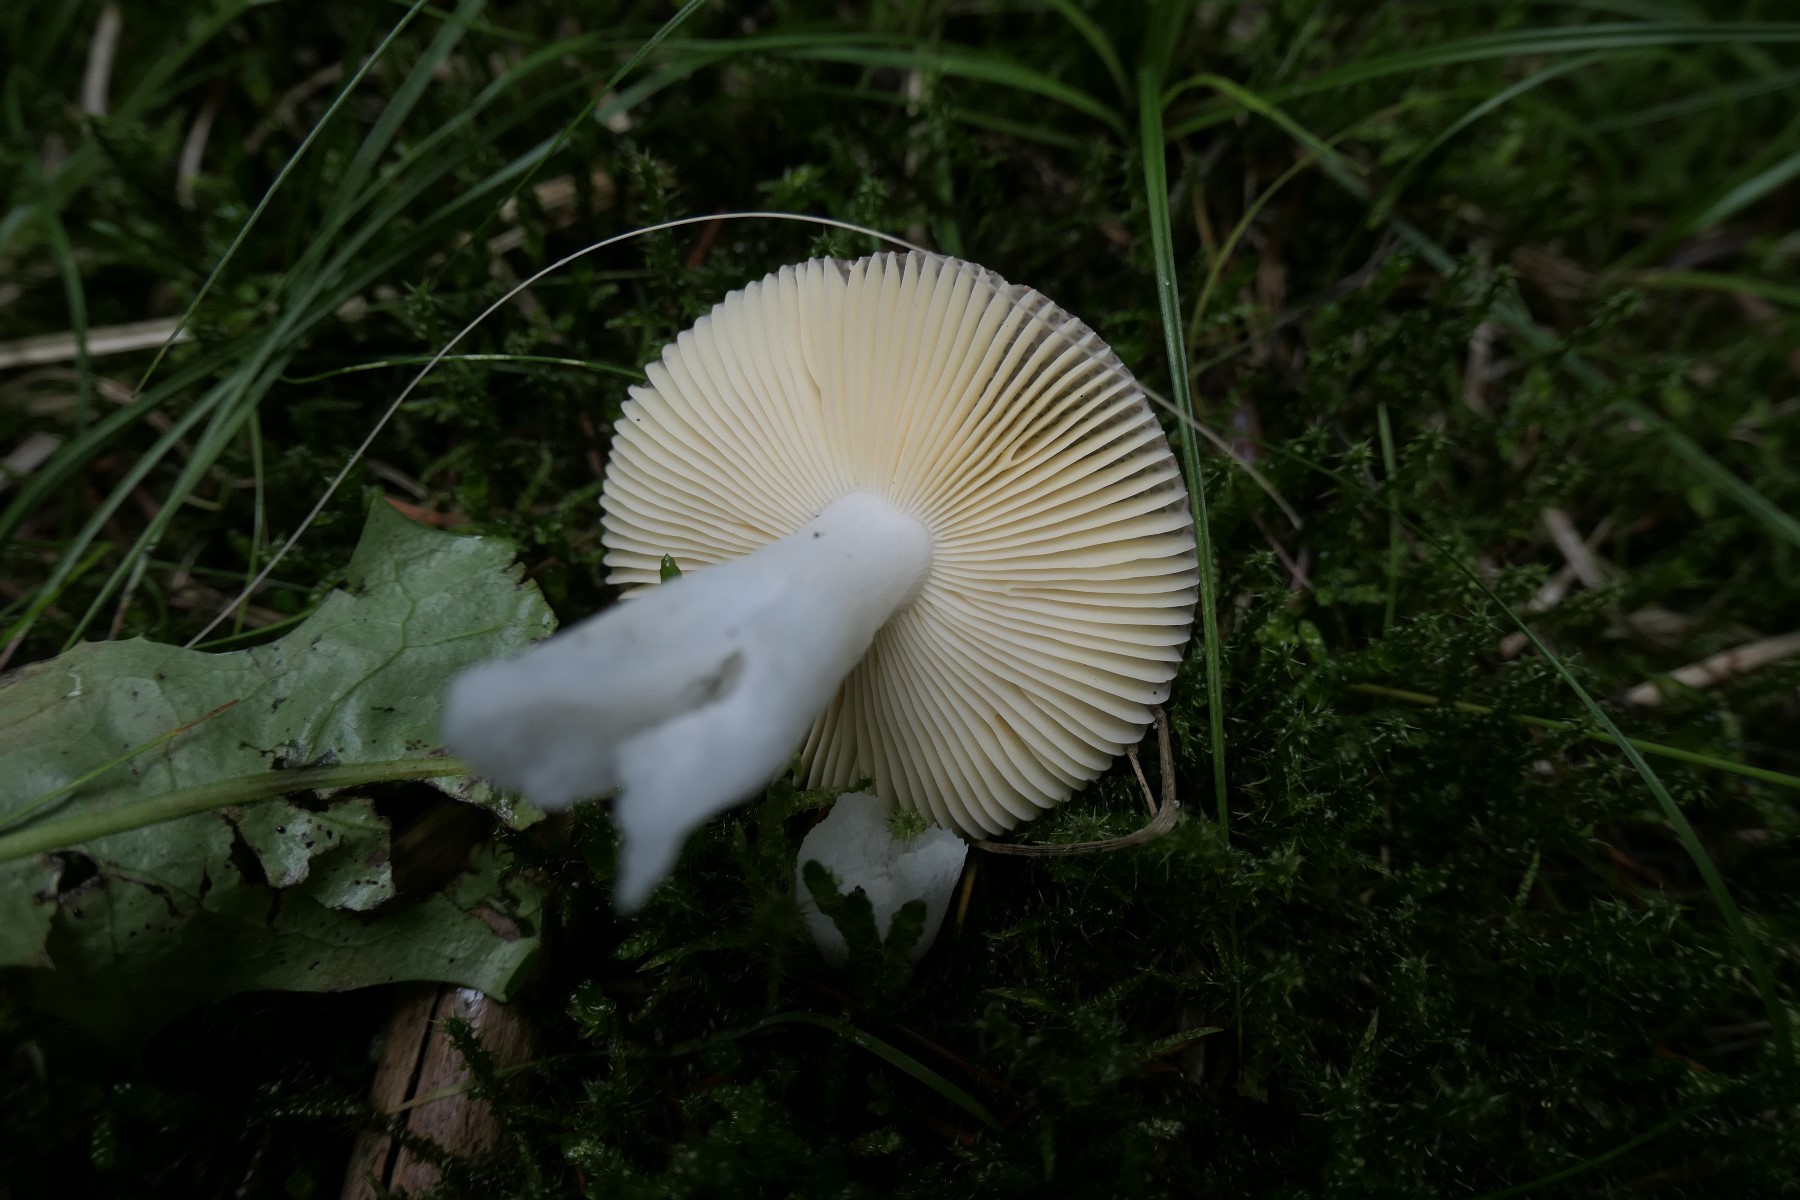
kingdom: Fungi
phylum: Basidiomycota
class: Agaricomycetes
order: Russulales
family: Russulaceae
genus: Russula
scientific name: Russula nauseosa
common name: spinkel skørhat
